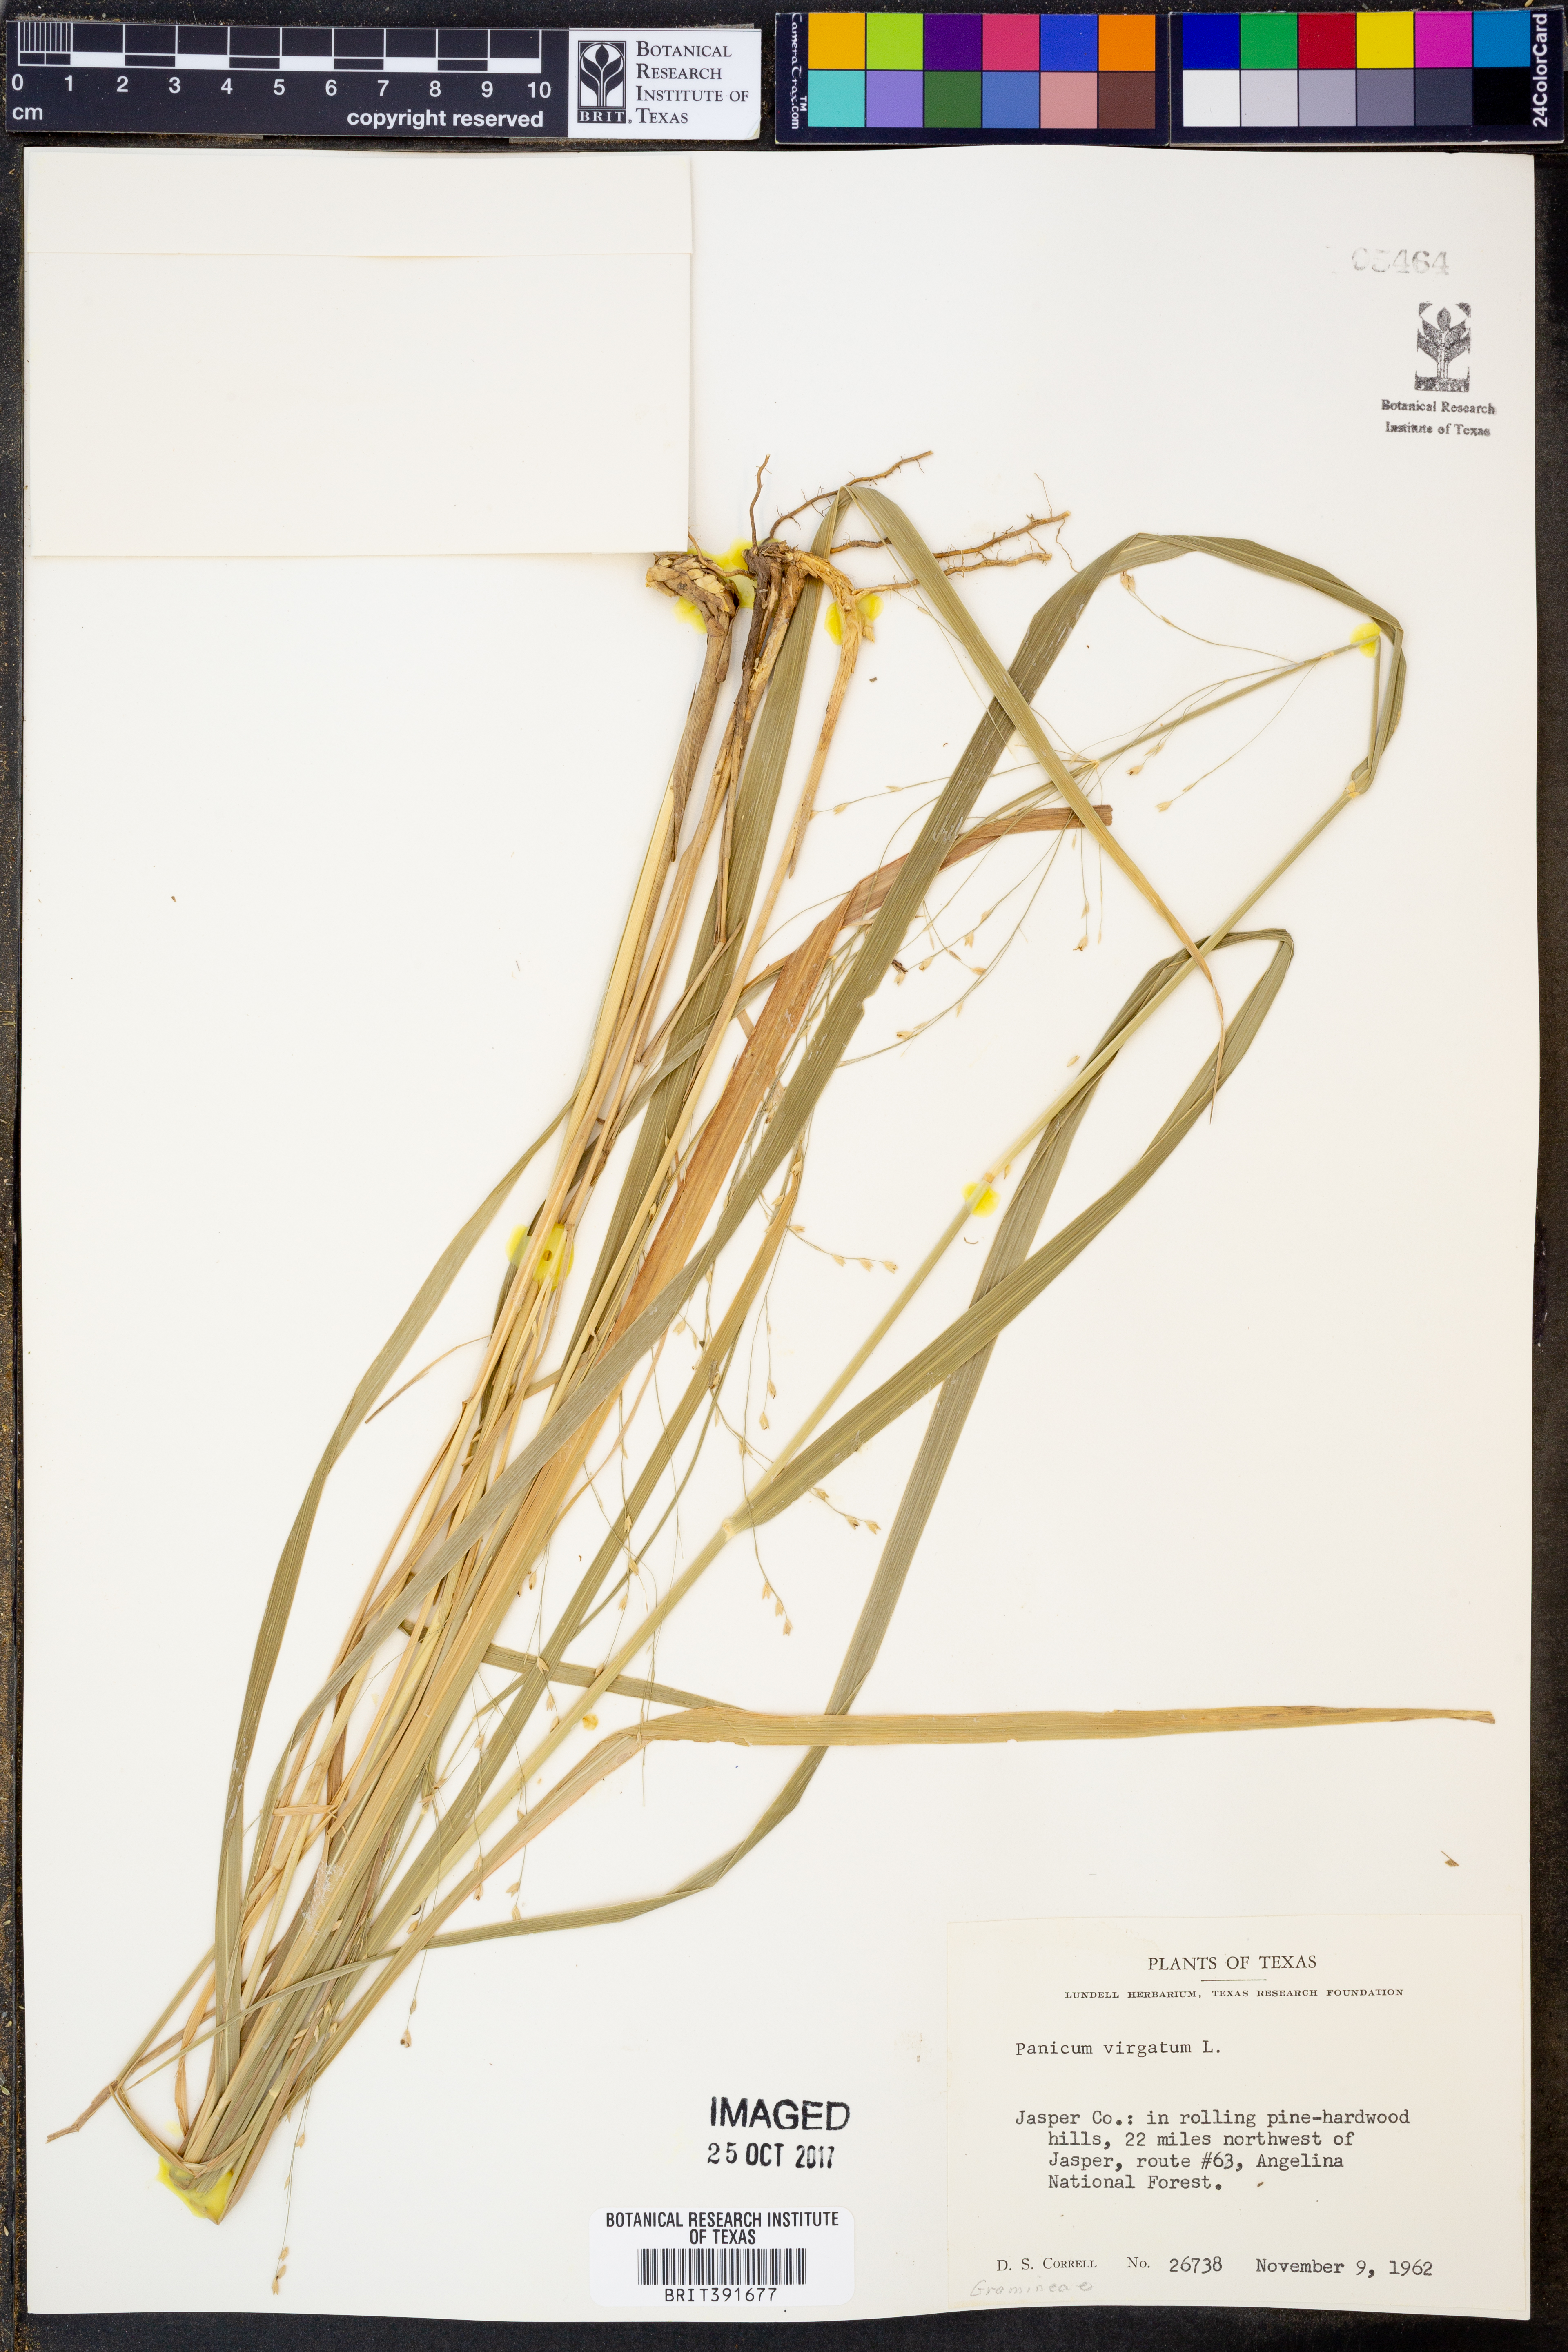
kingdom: Plantae
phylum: Tracheophyta
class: Liliopsida
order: Poales
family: Poaceae
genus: Panicum
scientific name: Panicum virgatum
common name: Switchgrass
